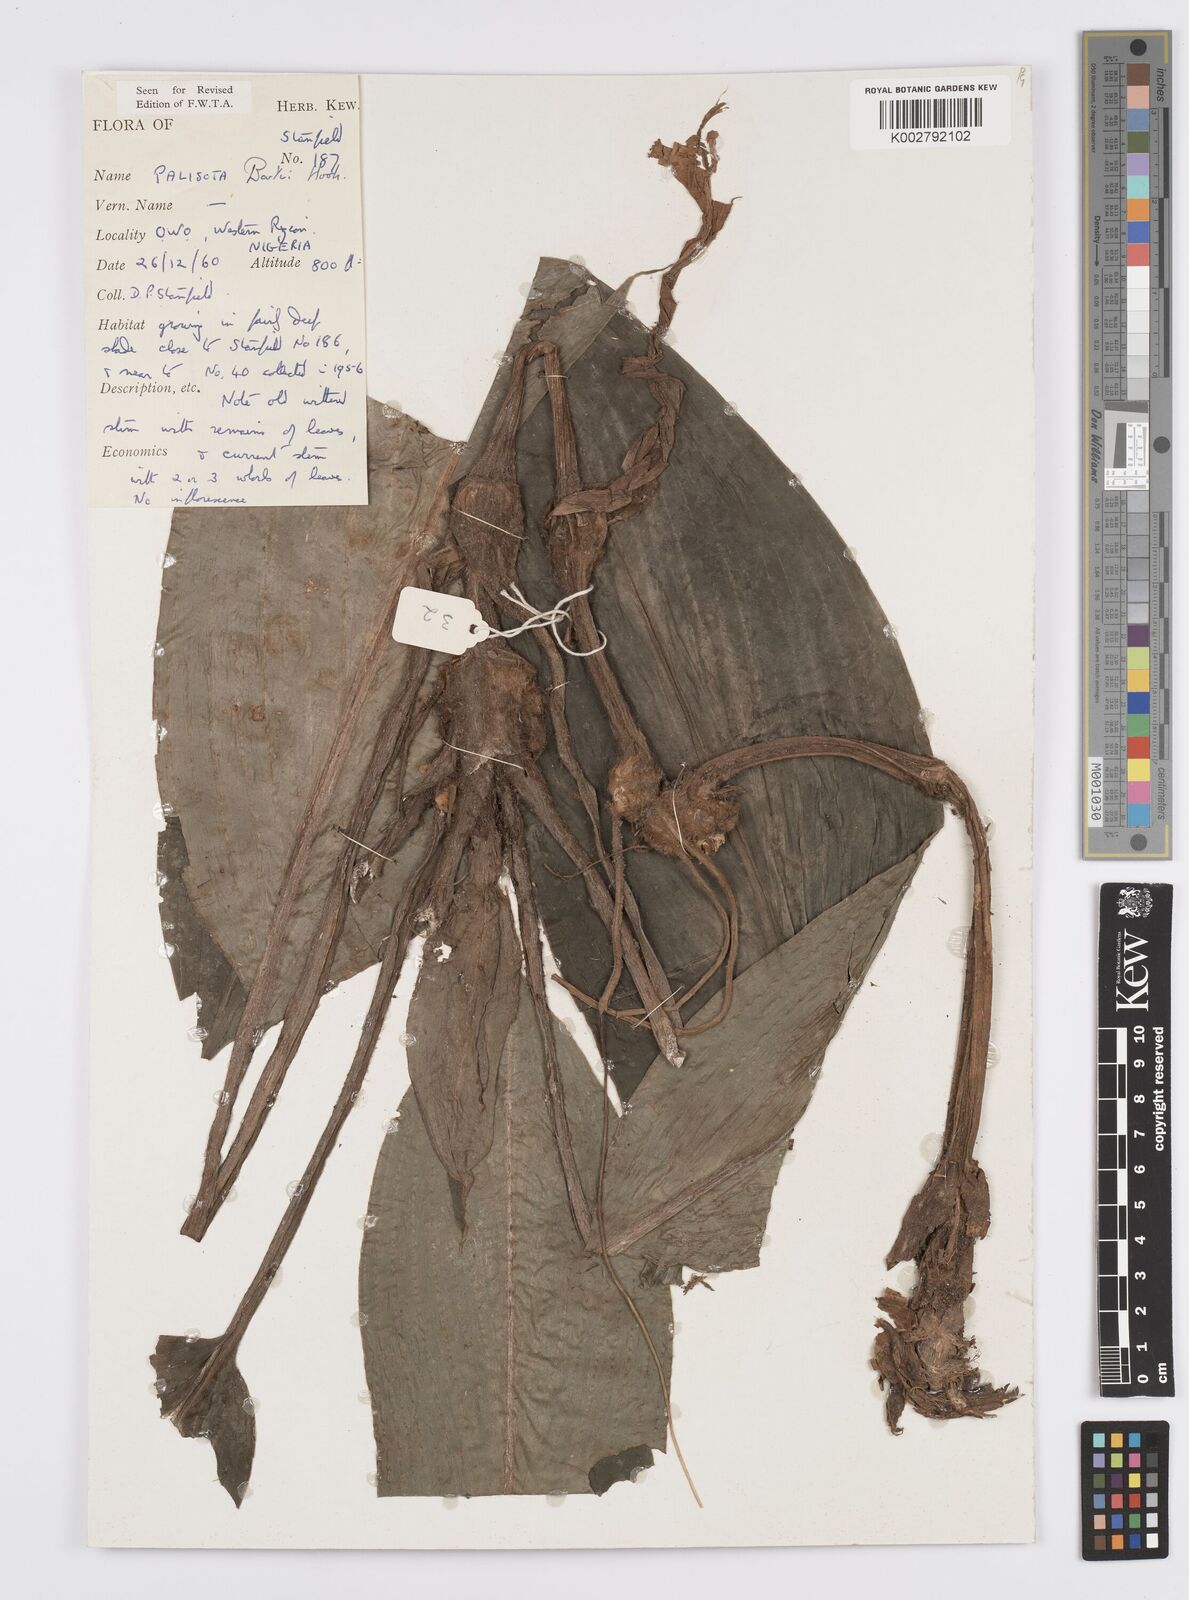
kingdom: Plantae
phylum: Tracheophyta
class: Liliopsida
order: Commelinales
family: Commelinaceae
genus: Palisota
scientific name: Palisota barteri
